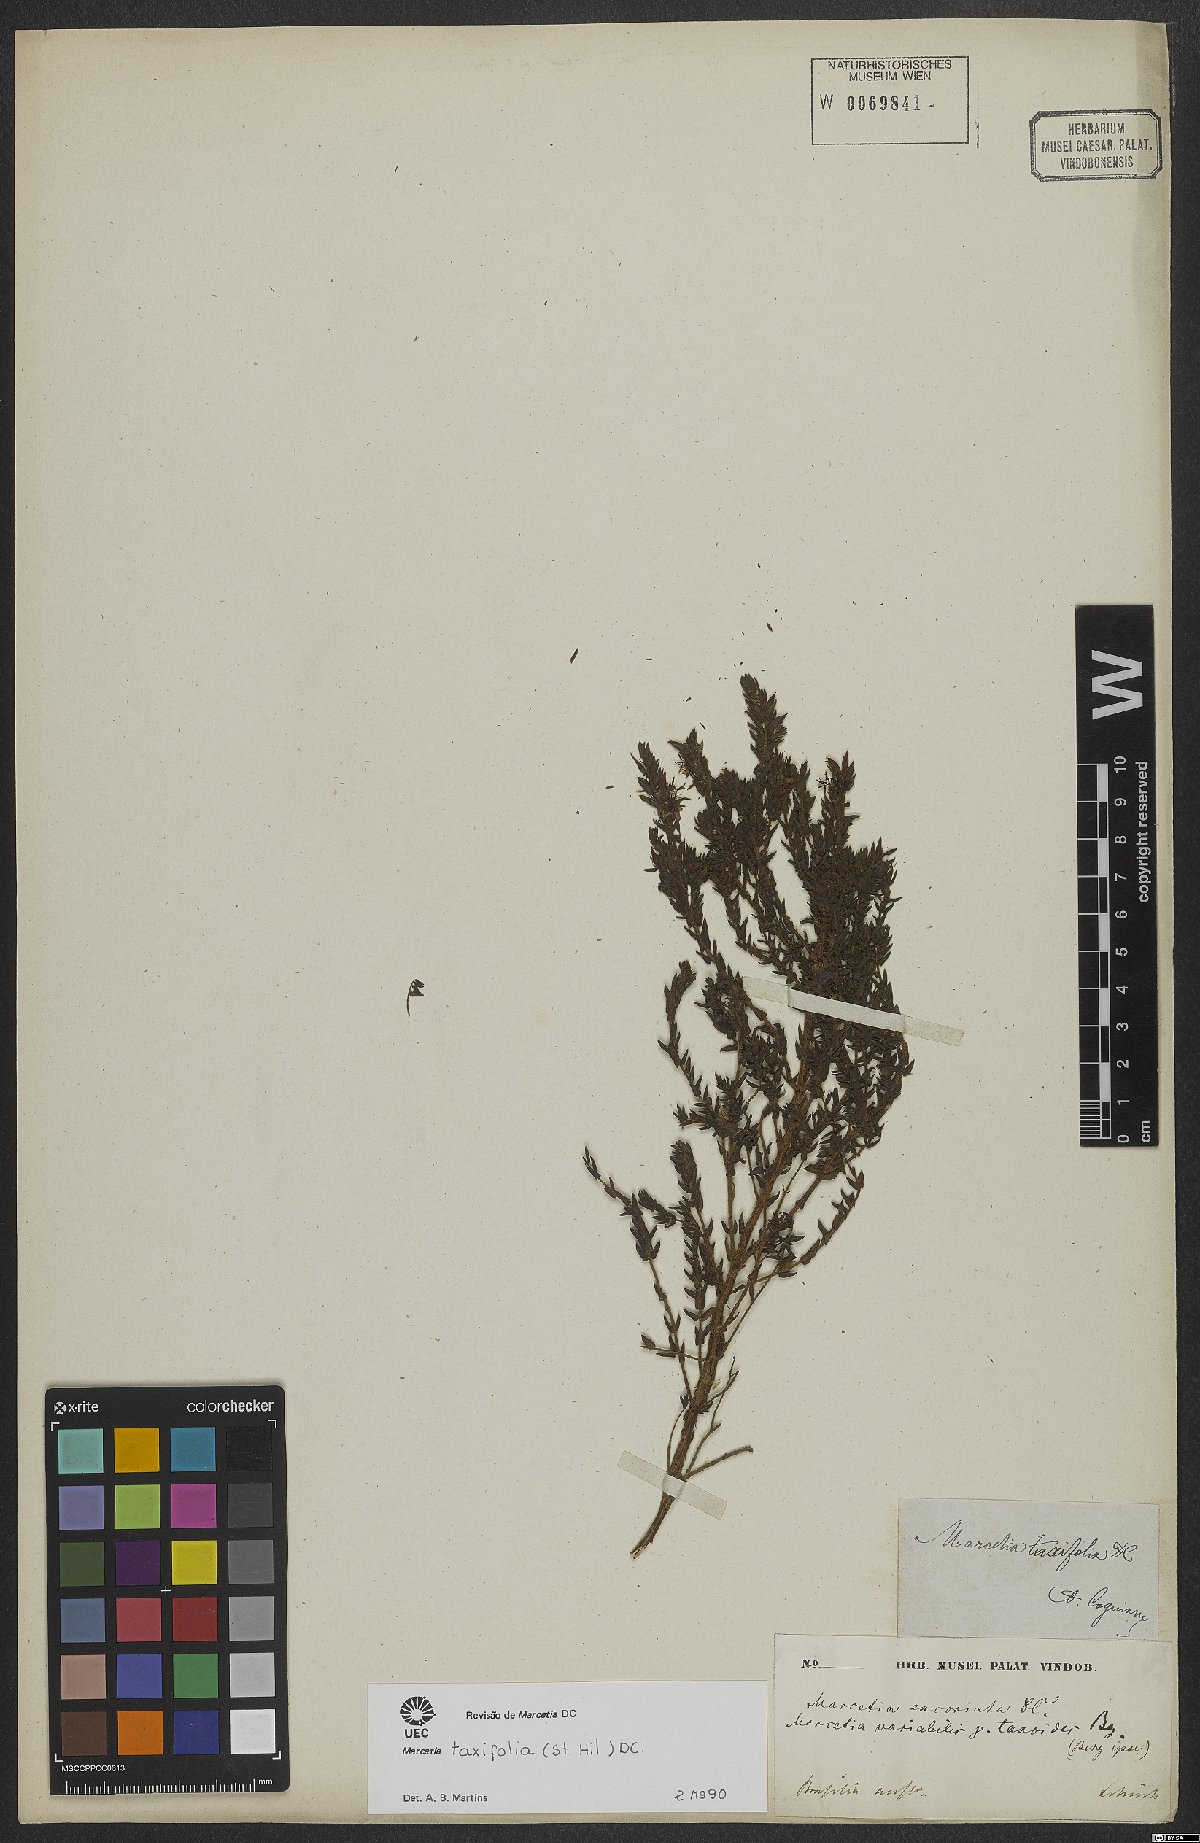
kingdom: Plantae
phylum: Tracheophyta
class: Magnoliopsida
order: Myrtales
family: Melastomataceae
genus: Marcetia
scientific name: Marcetia taxifolia
